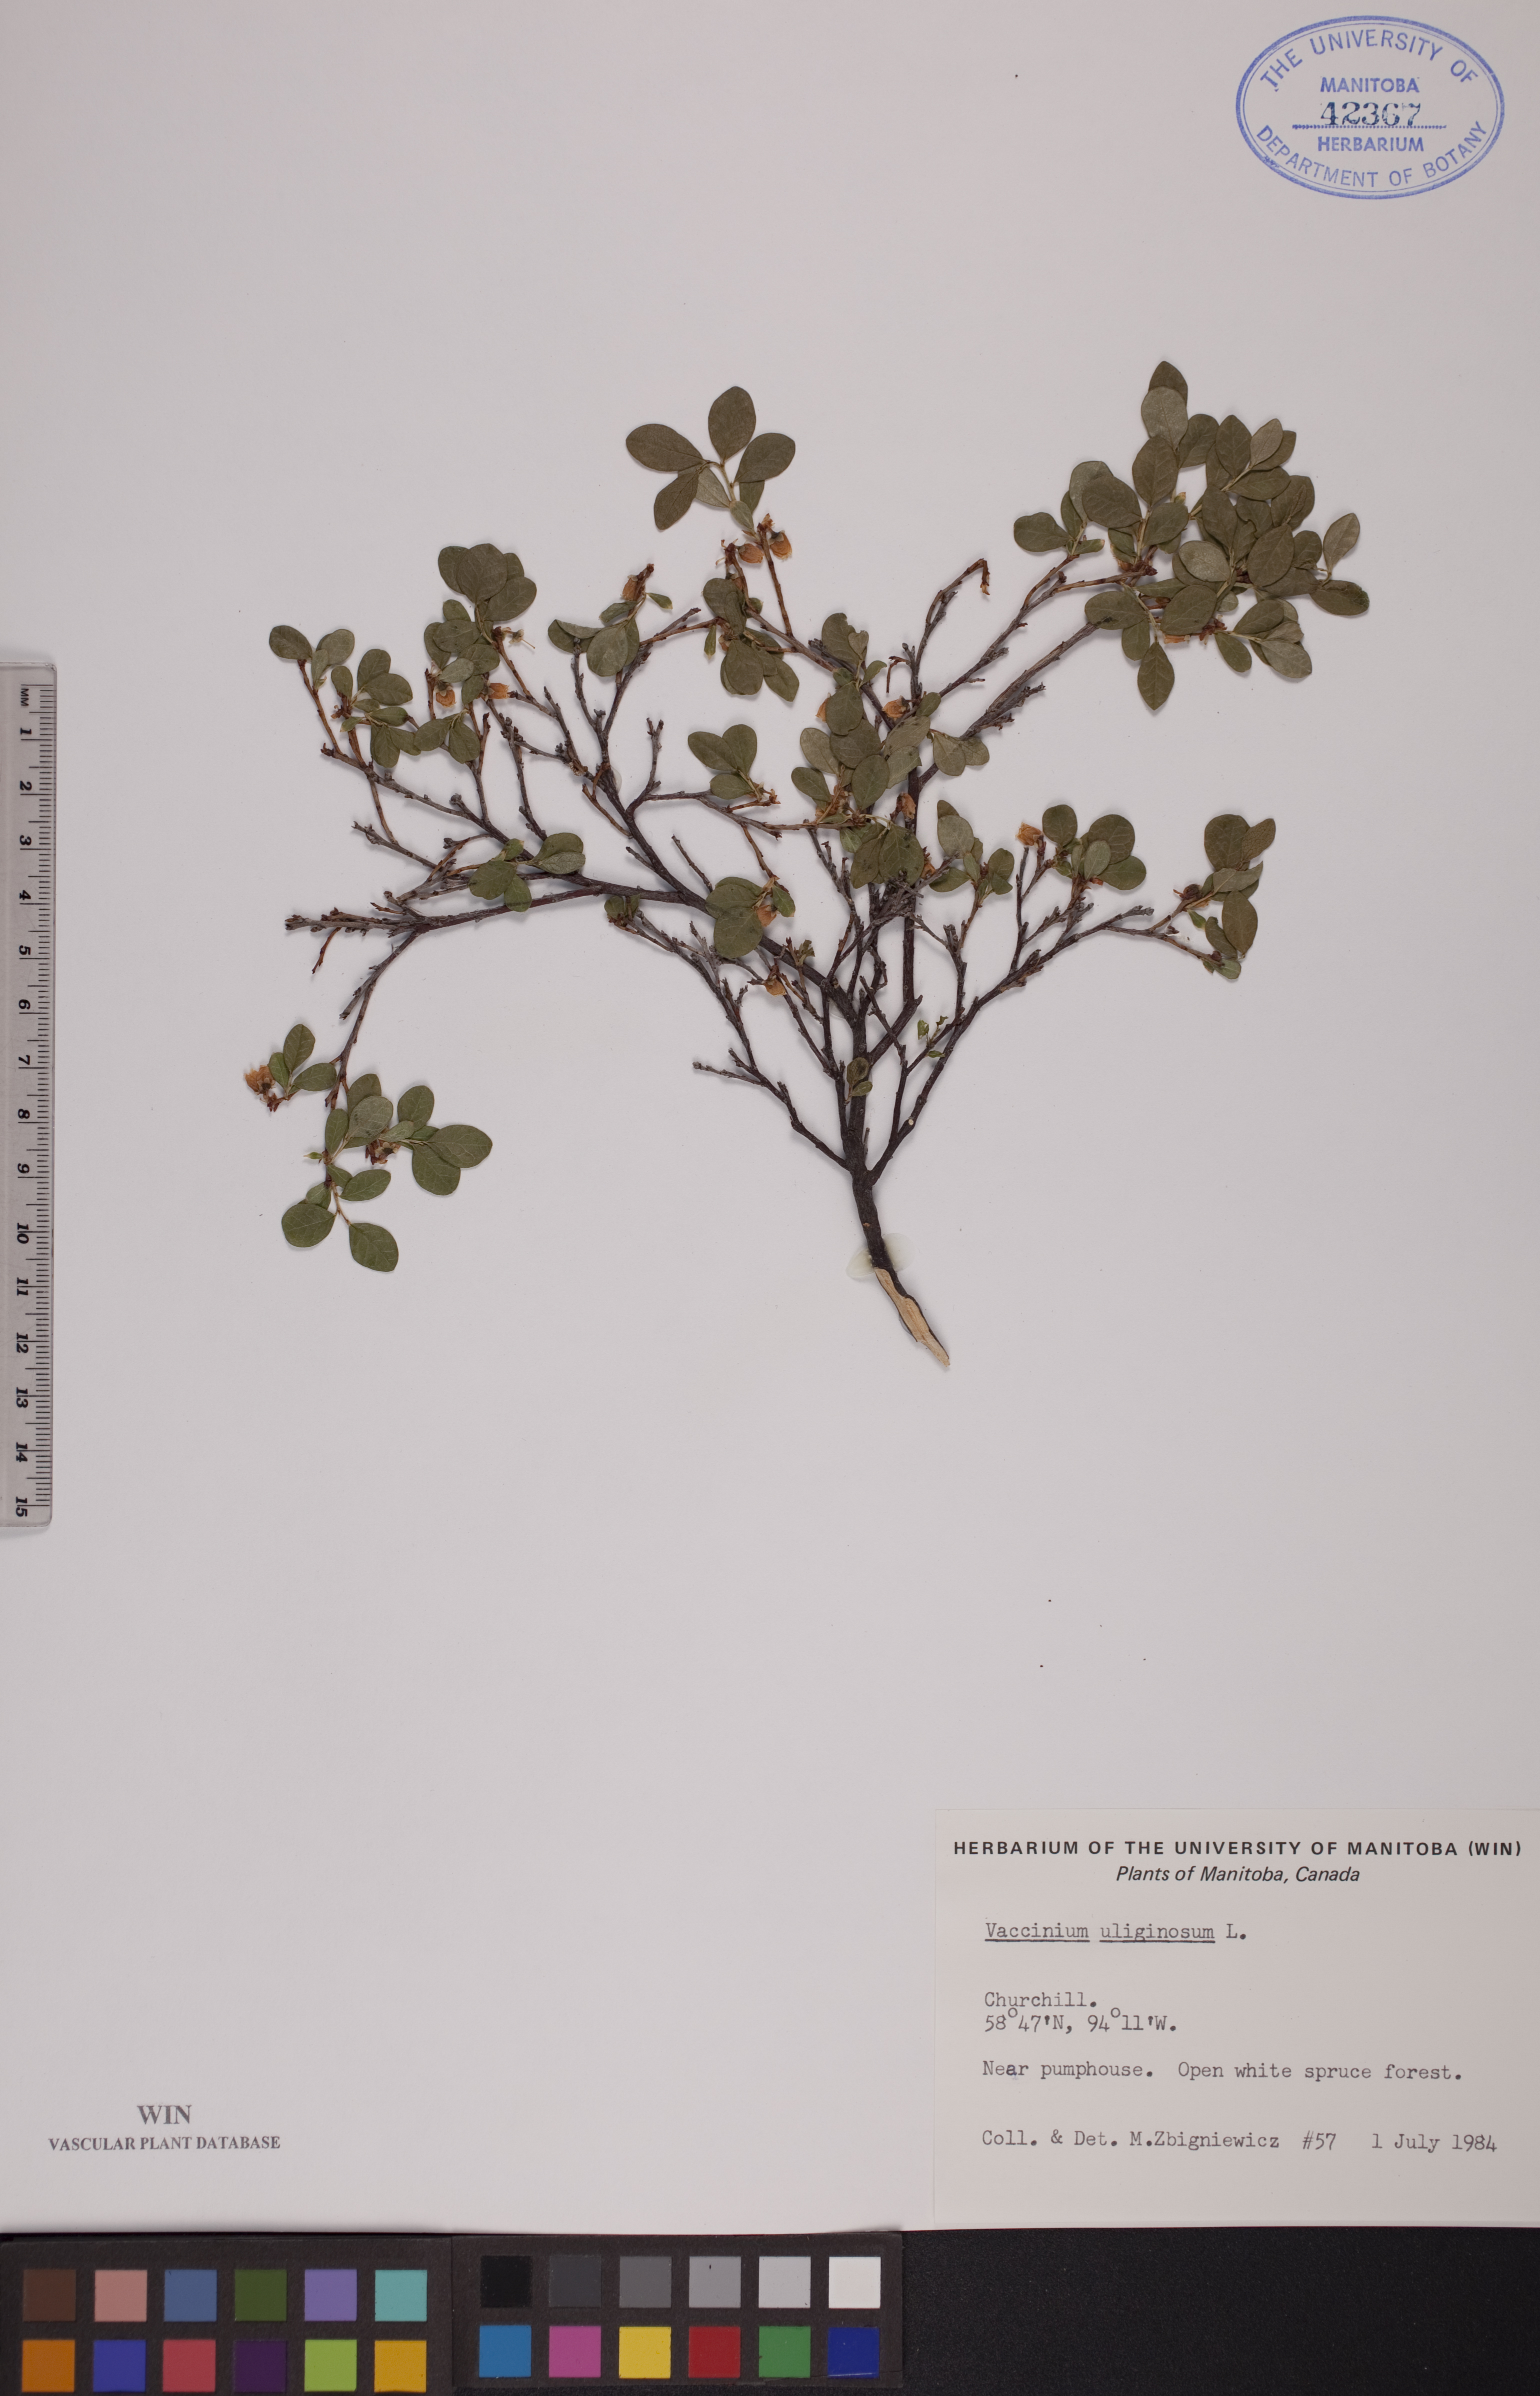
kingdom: Plantae
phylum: Tracheophyta
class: Magnoliopsida
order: Ericales
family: Ericaceae
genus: Vaccinium
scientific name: Vaccinium uliginosum
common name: Bog bilberry
